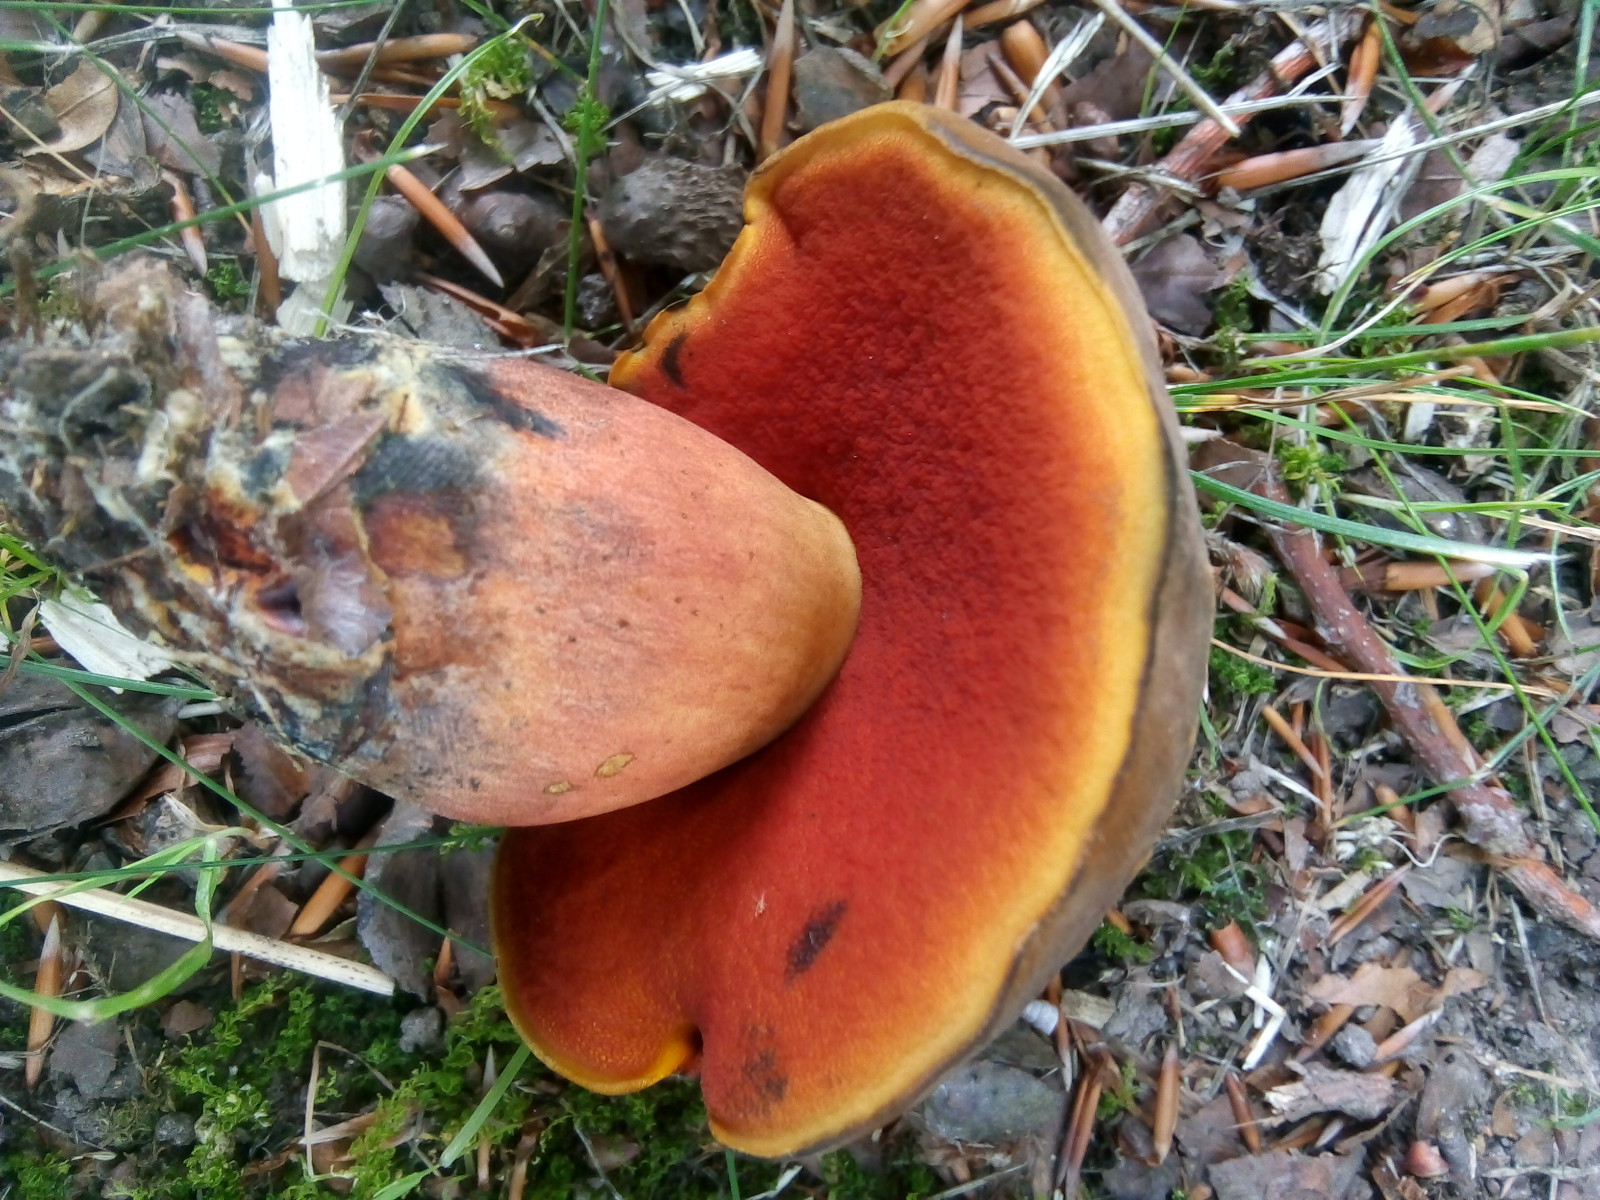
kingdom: Fungi
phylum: Basidiomycota
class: Agaricomycetes
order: Boletales
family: Boletaceae
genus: Neoboletus
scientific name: Neoboletus xanthopus
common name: finprikket indigorørhat
